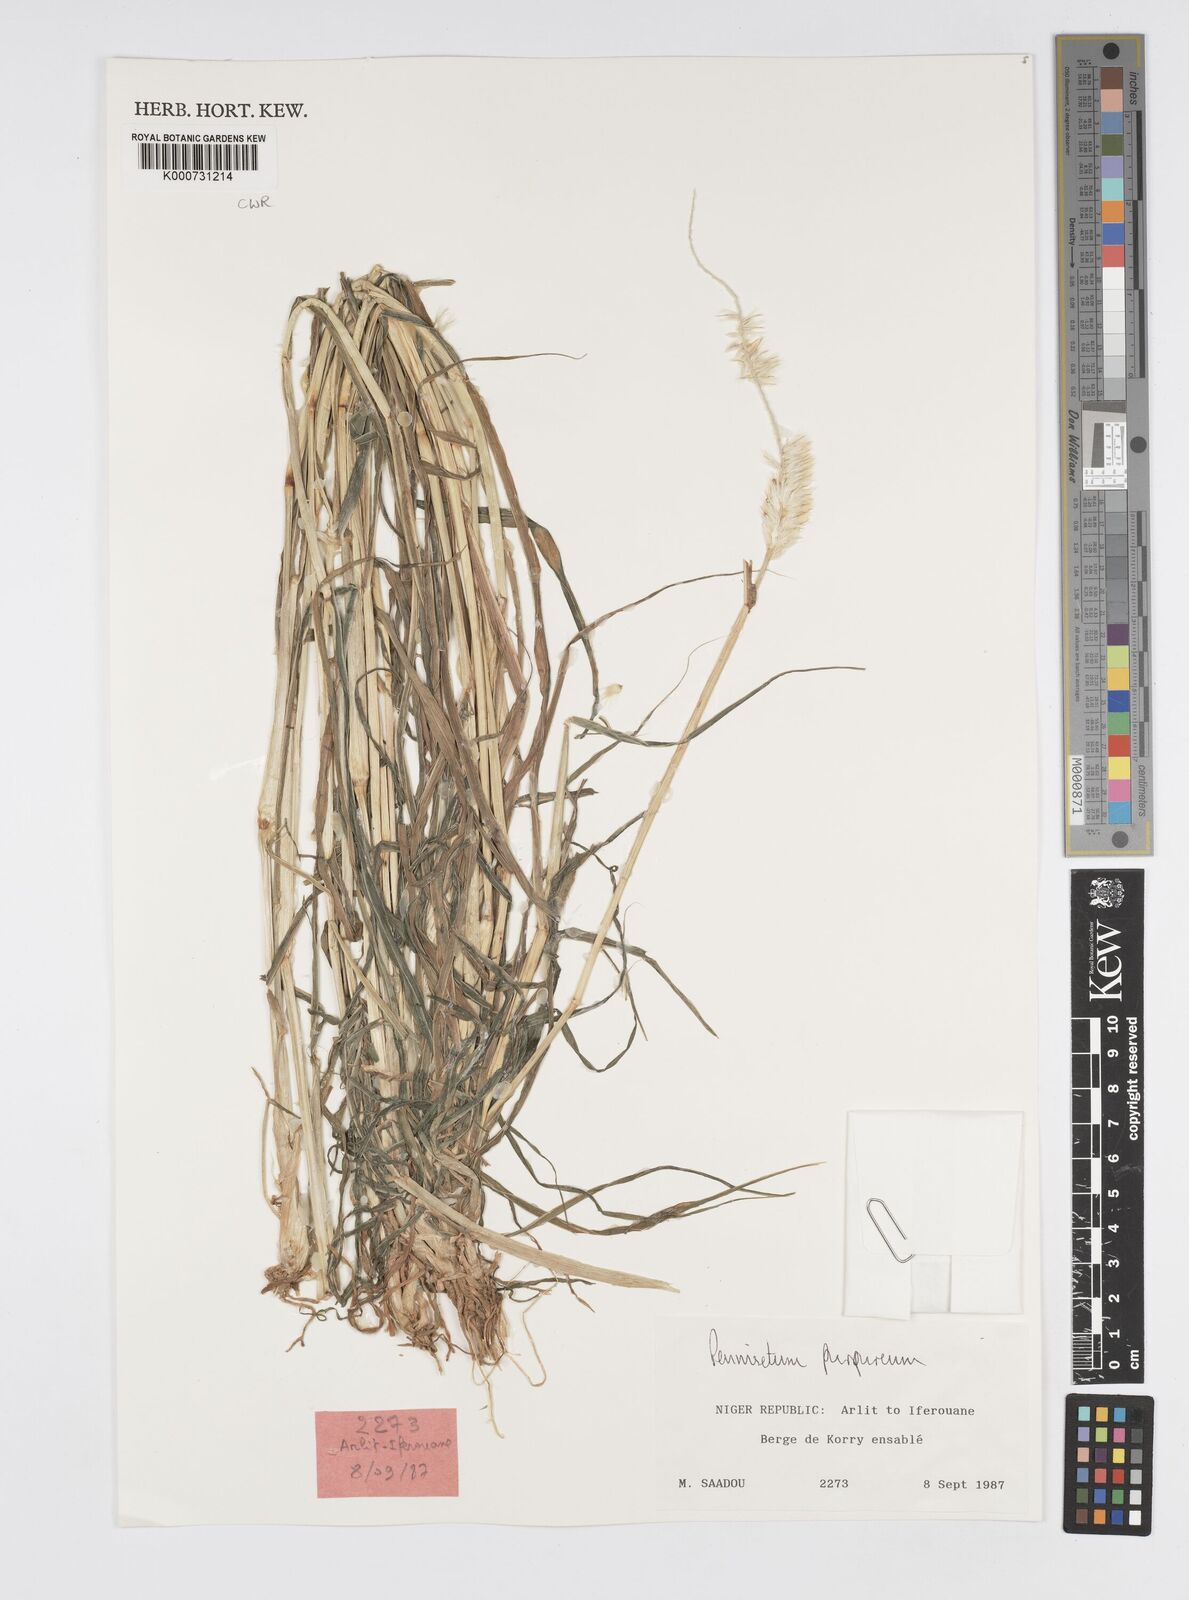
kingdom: Plantae
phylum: Tracheophyta
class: Liliopsida
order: Poales
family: Poaceae
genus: Cenchrus
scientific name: Cenchrus purpureus
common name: Elephant grass
